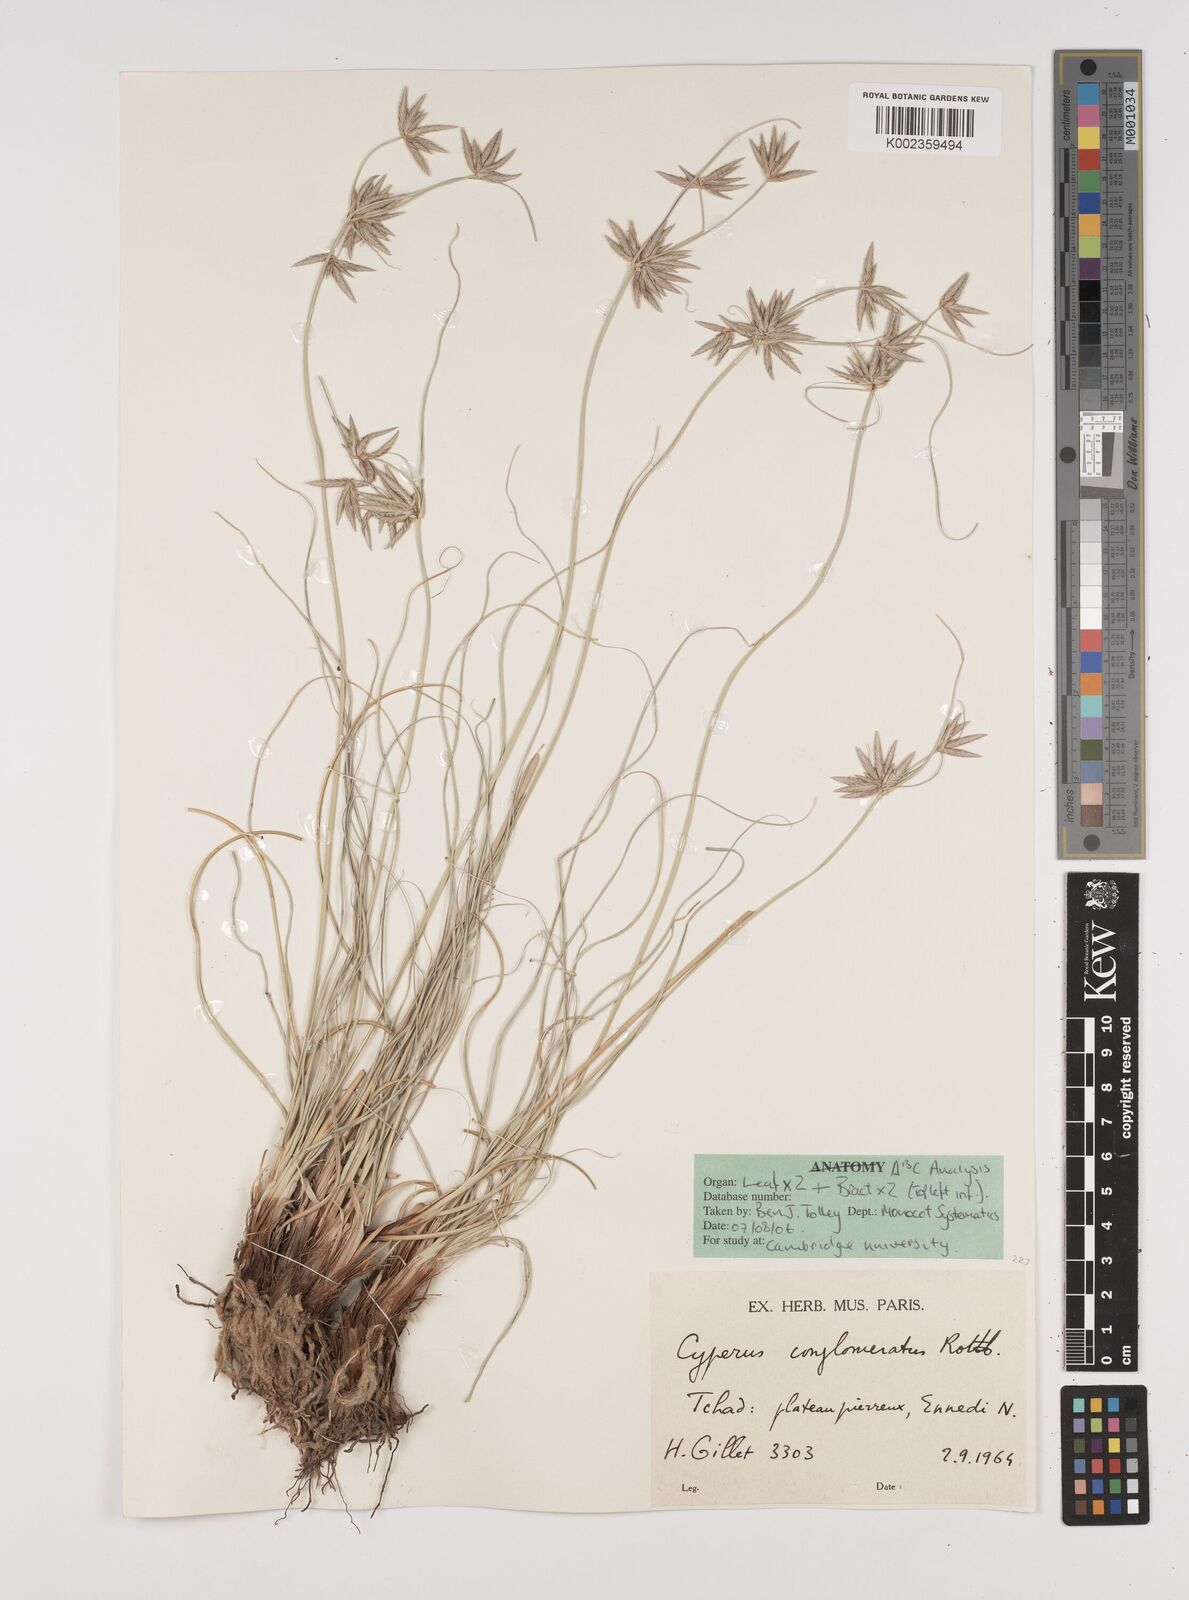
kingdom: Plantae
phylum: Tracheophyta
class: Liliopsida
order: Poales
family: Cyperaceae
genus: Cyperus
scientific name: Cyperus conglomeratus
